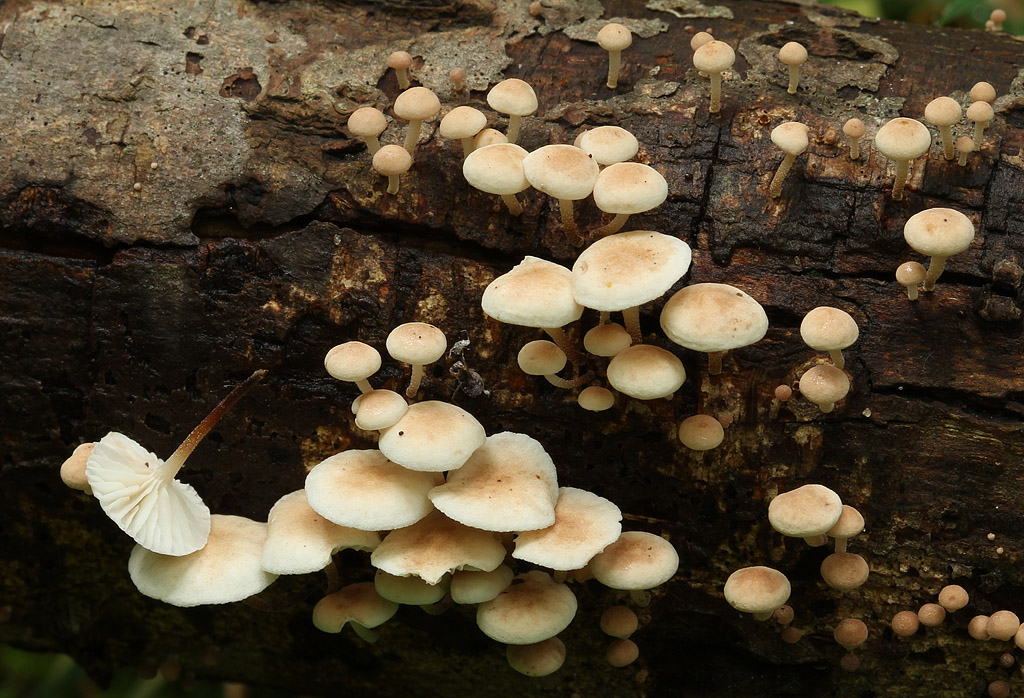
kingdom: Fungi
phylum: Basidiomycota
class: Agaricomycetes
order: Agaricales
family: Omphalotaceae
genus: Collybiopsis
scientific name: Collybiopsis ramealis
